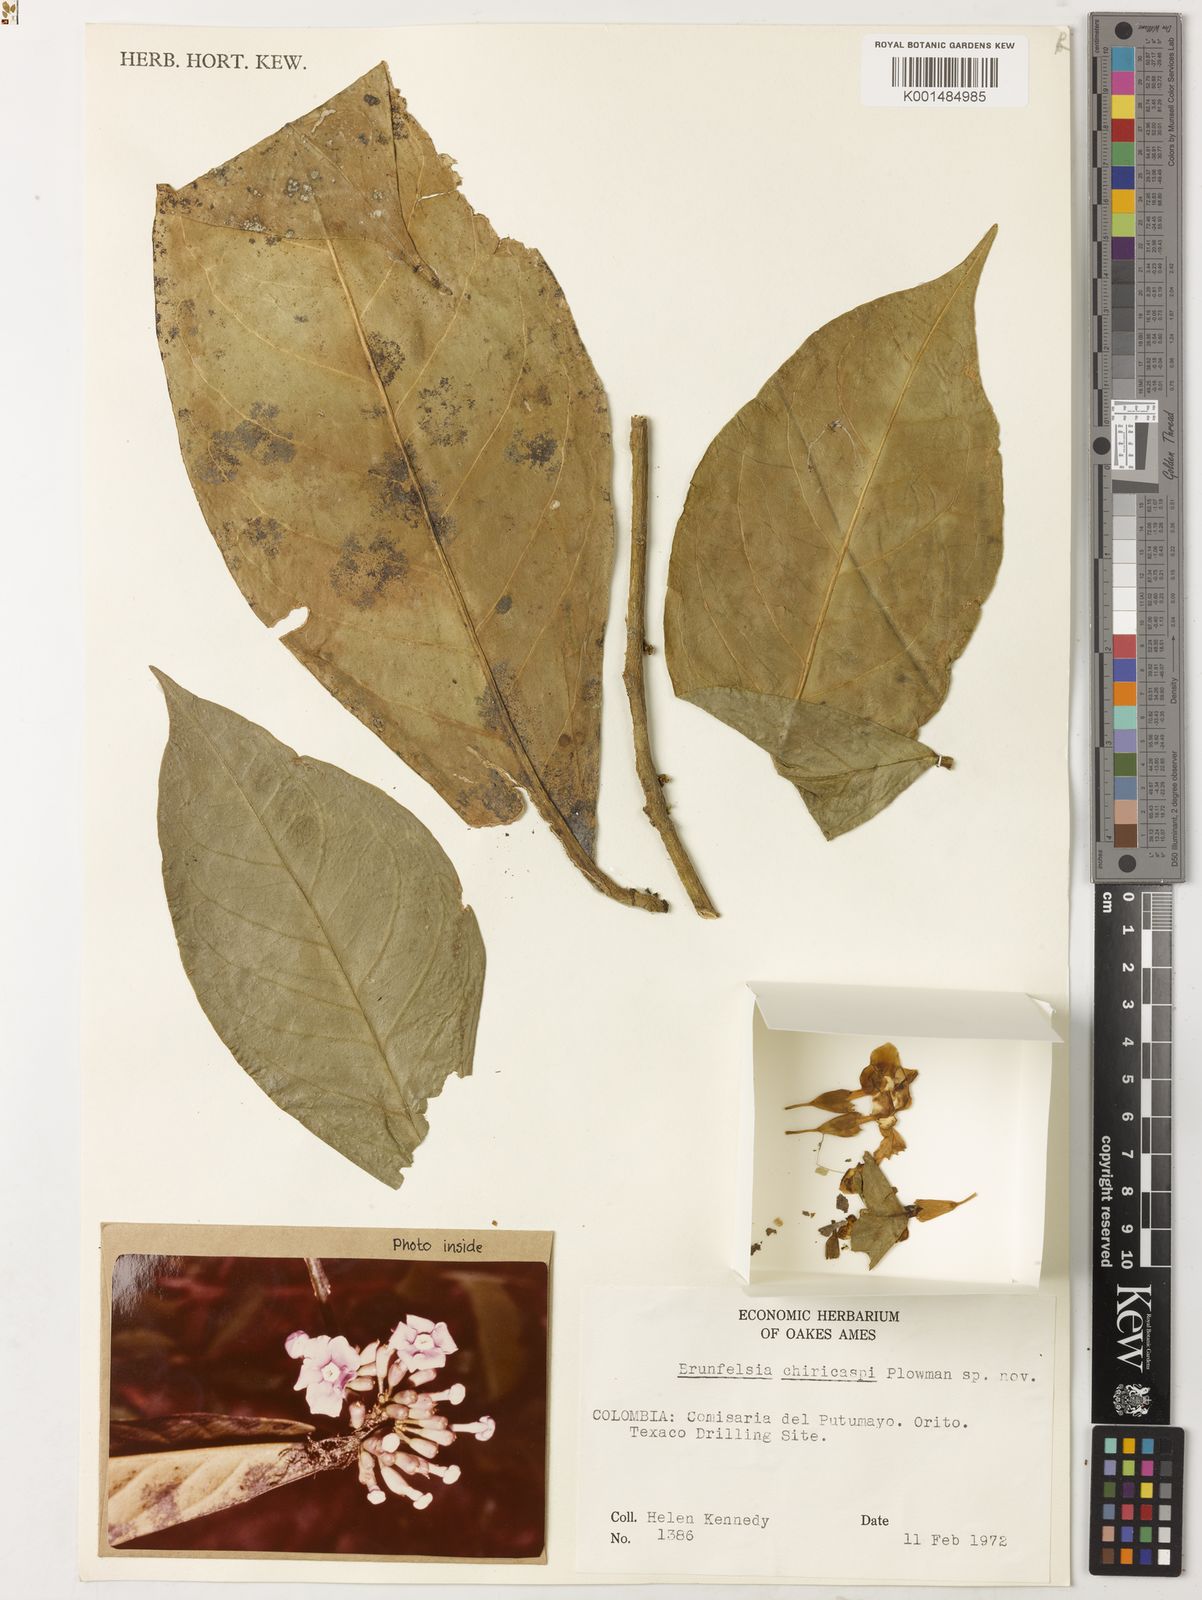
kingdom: Plantae
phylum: Tracheophyta
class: Magnoliopsida
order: Solanales
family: Solanaceae
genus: Brunfelsia
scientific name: Brunfelsia chiricaspi
